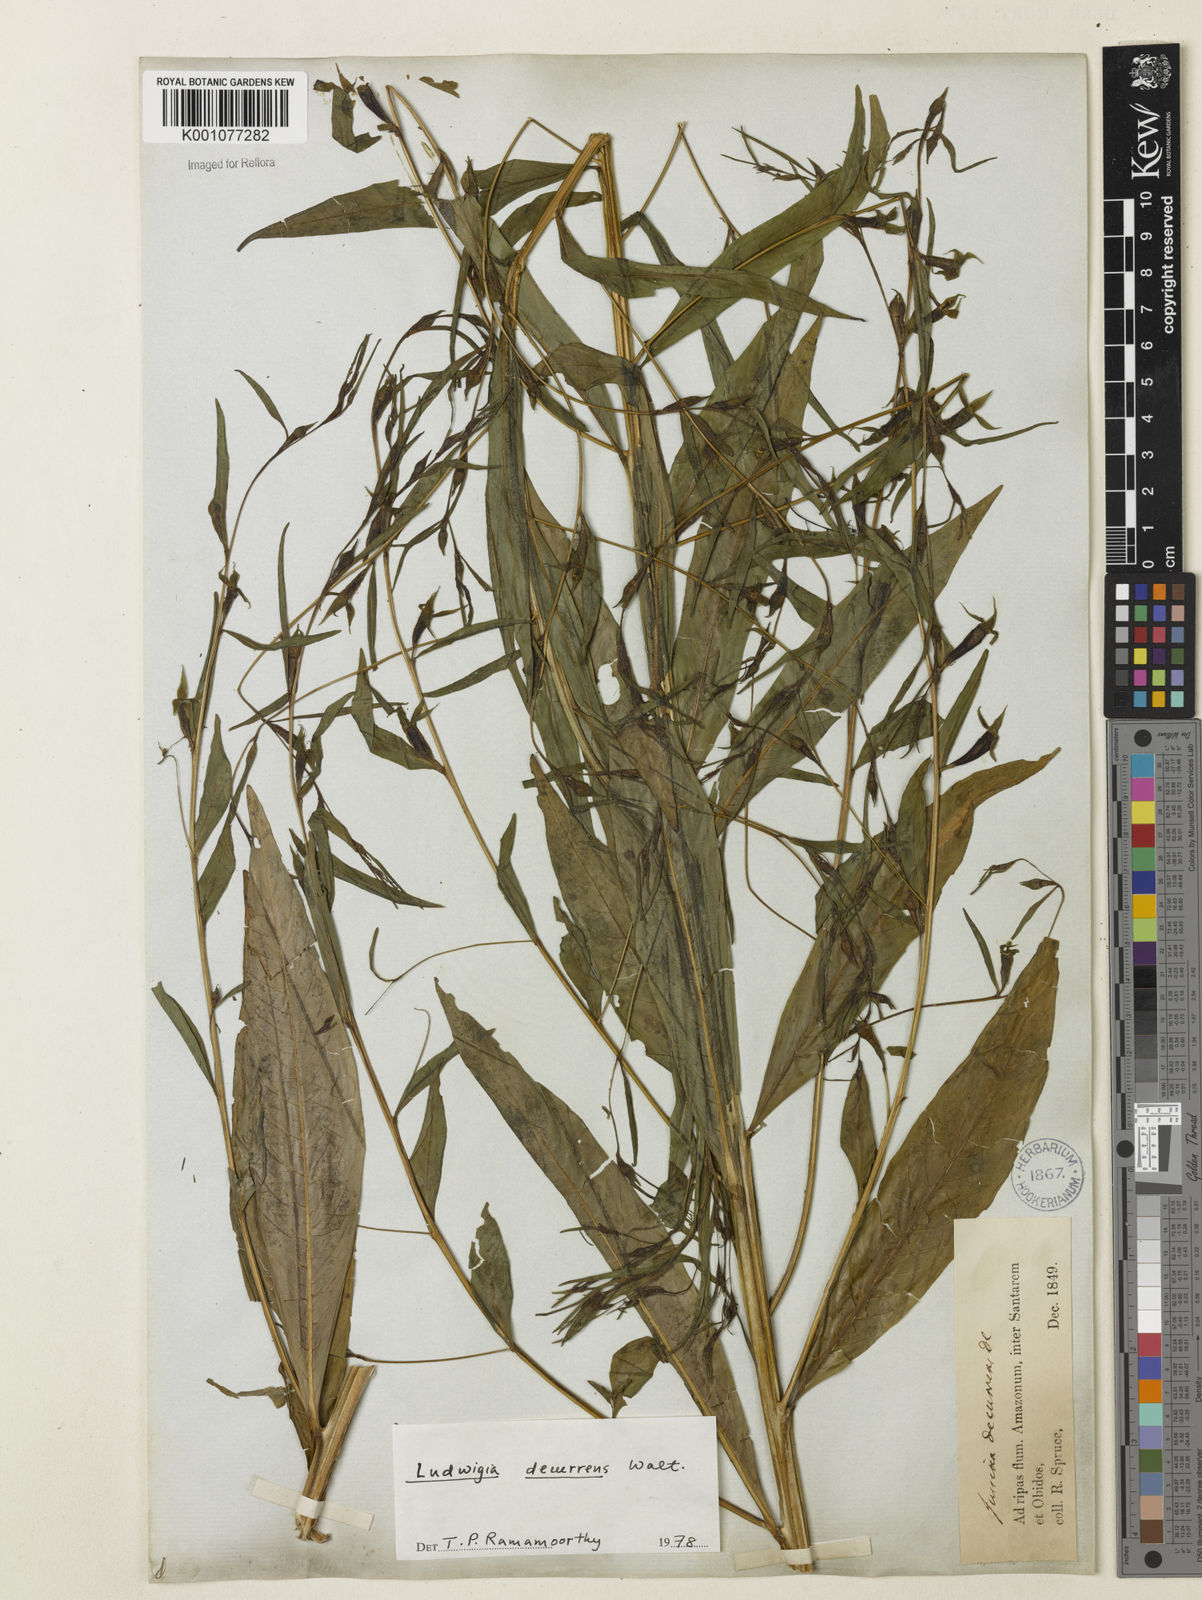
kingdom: Plantae
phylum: Tracheophyta
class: Magnoliopsida
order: Myrtales
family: Onagraceae
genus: Ludwigia
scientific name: Ludwigia decurrens
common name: Winged water-primrose
